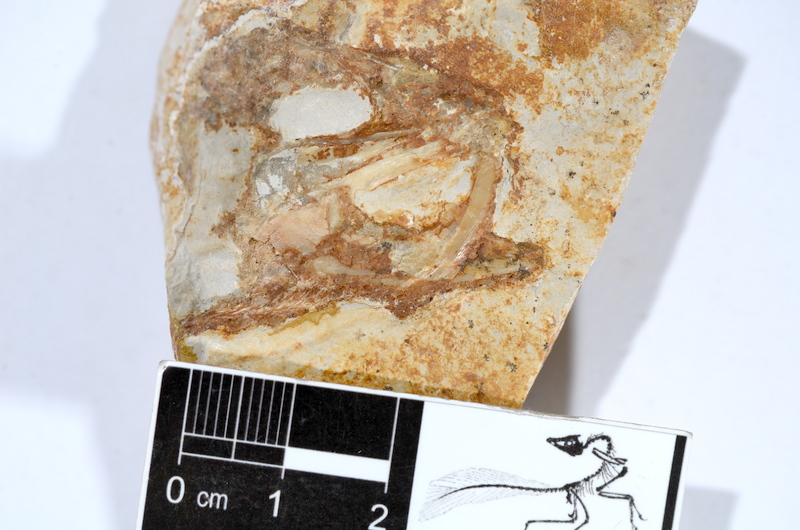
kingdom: Animalia
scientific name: Animalia
